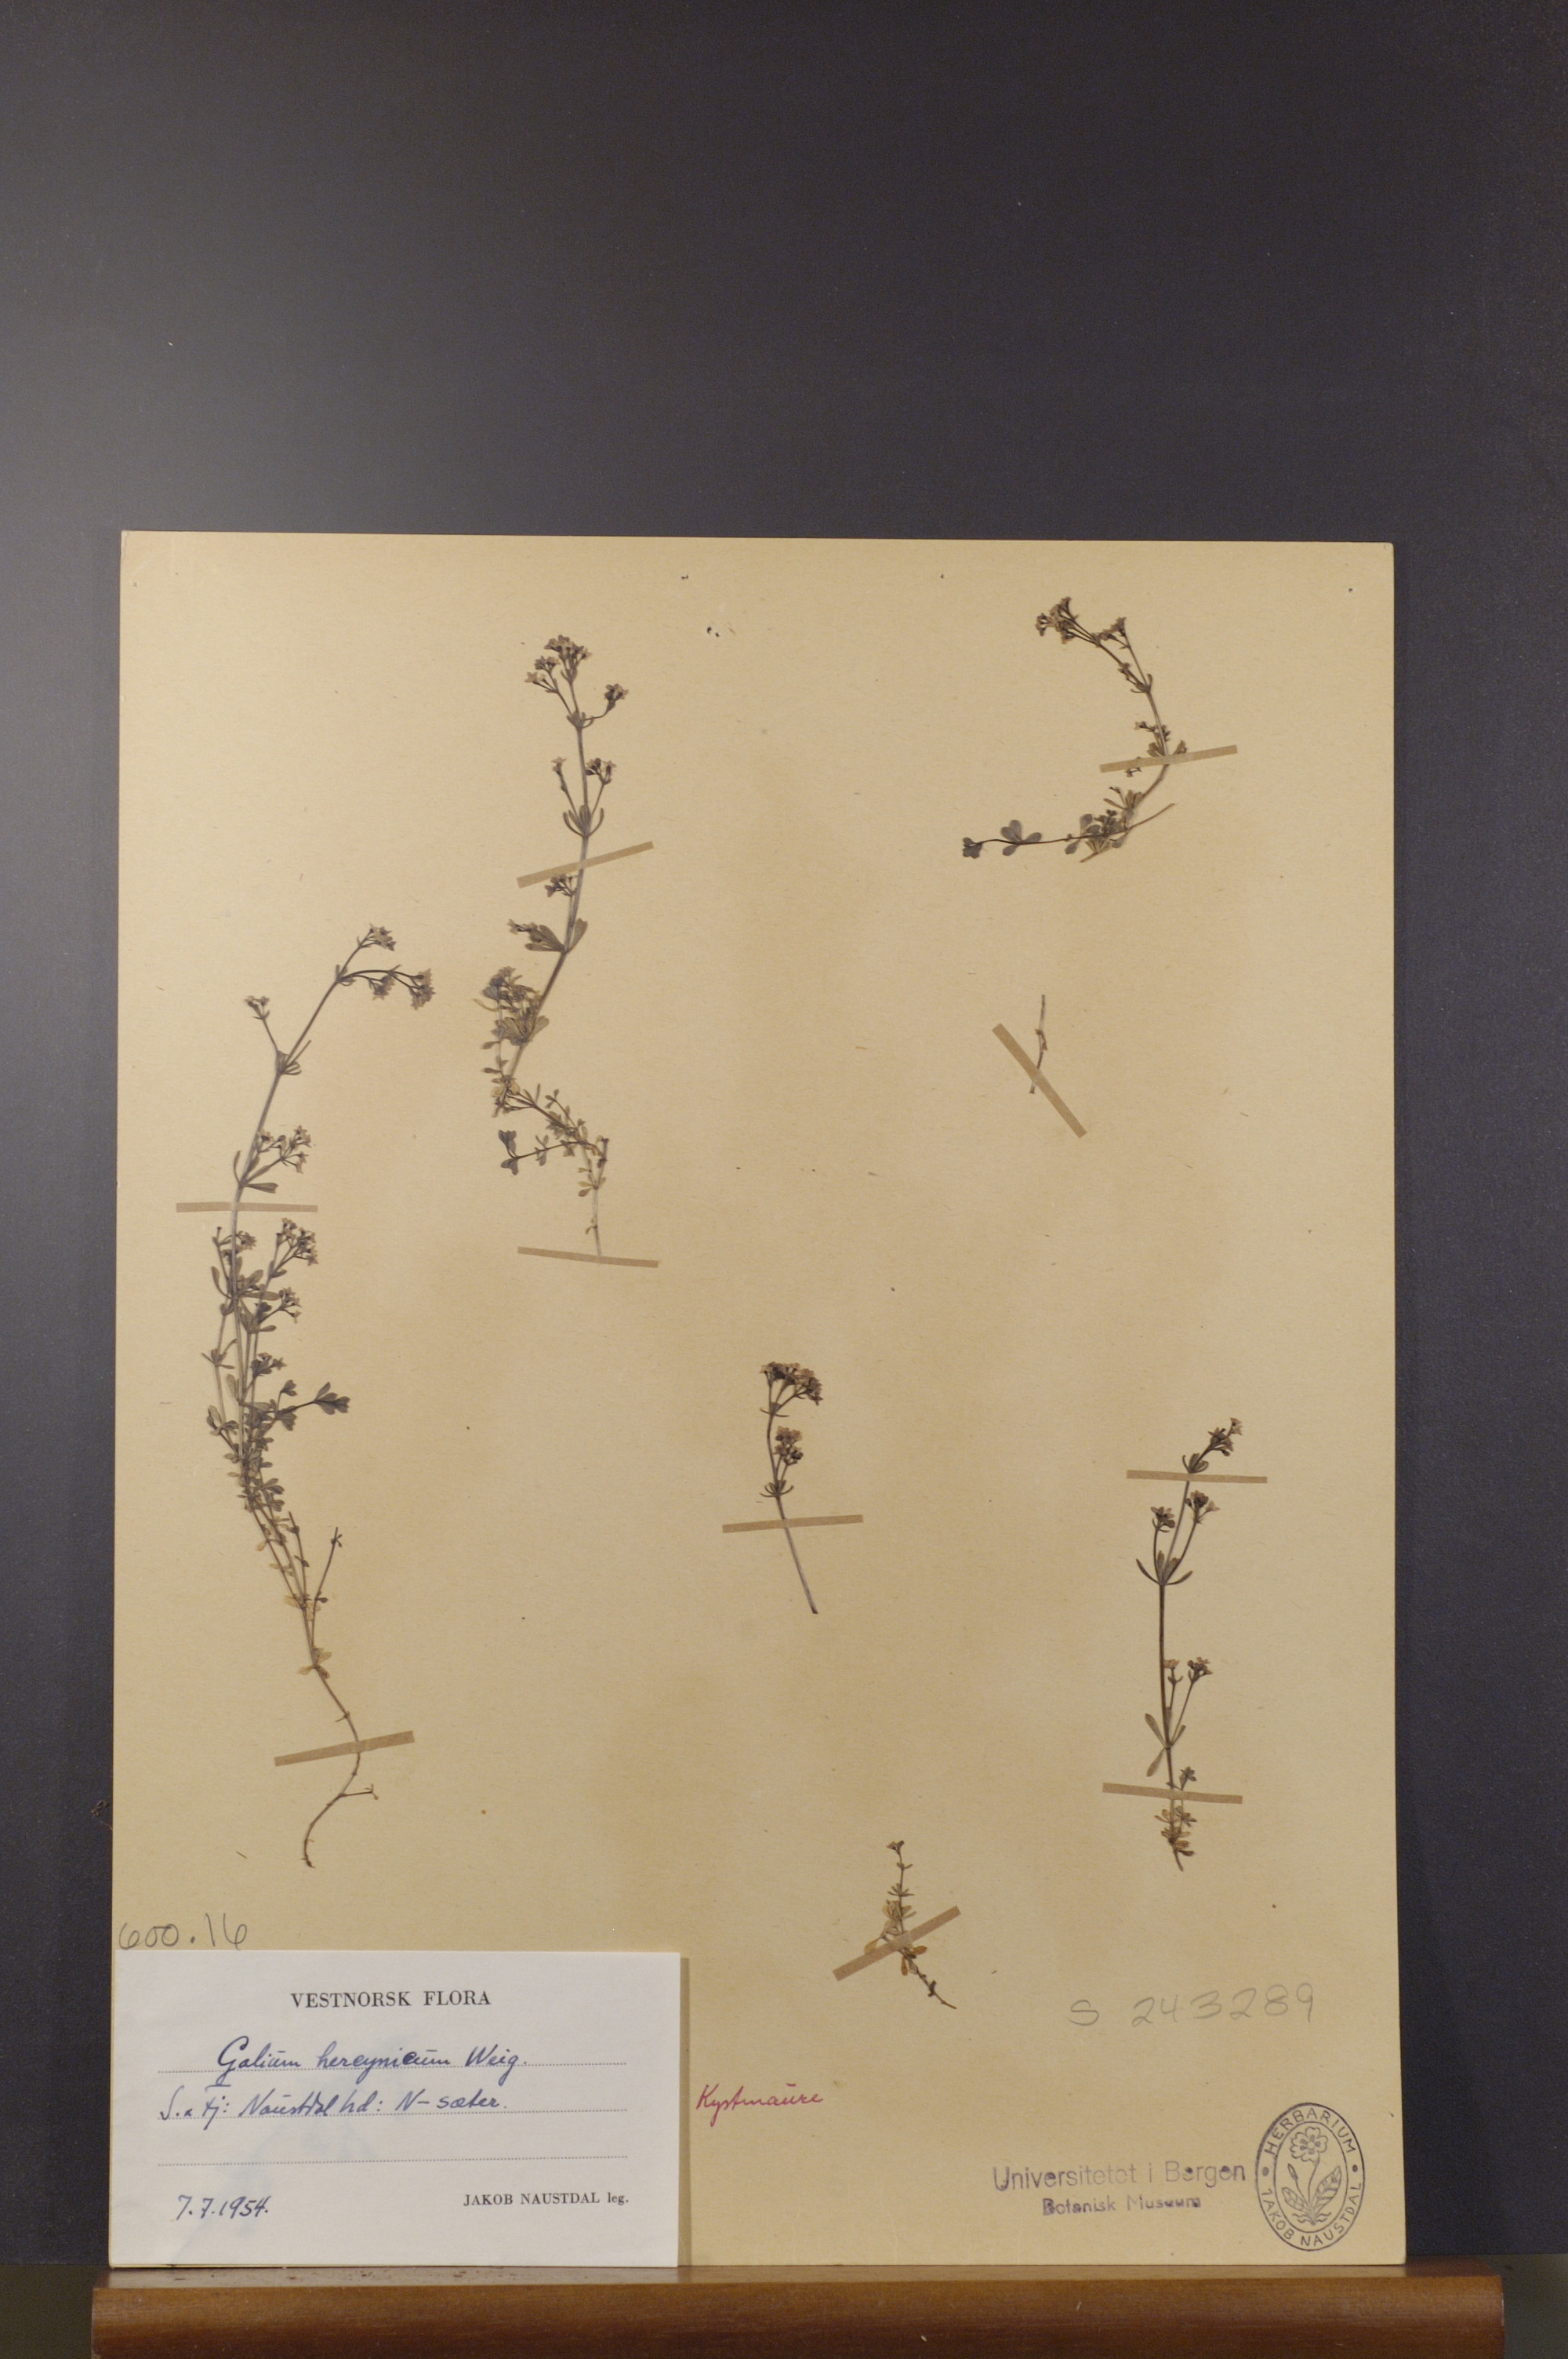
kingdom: Plantae
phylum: Tracheophyta
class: Magnoliopsida
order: Gentianales
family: Rubiaceae
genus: Galium
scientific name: Galium saxatile
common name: Heath bedstraw
